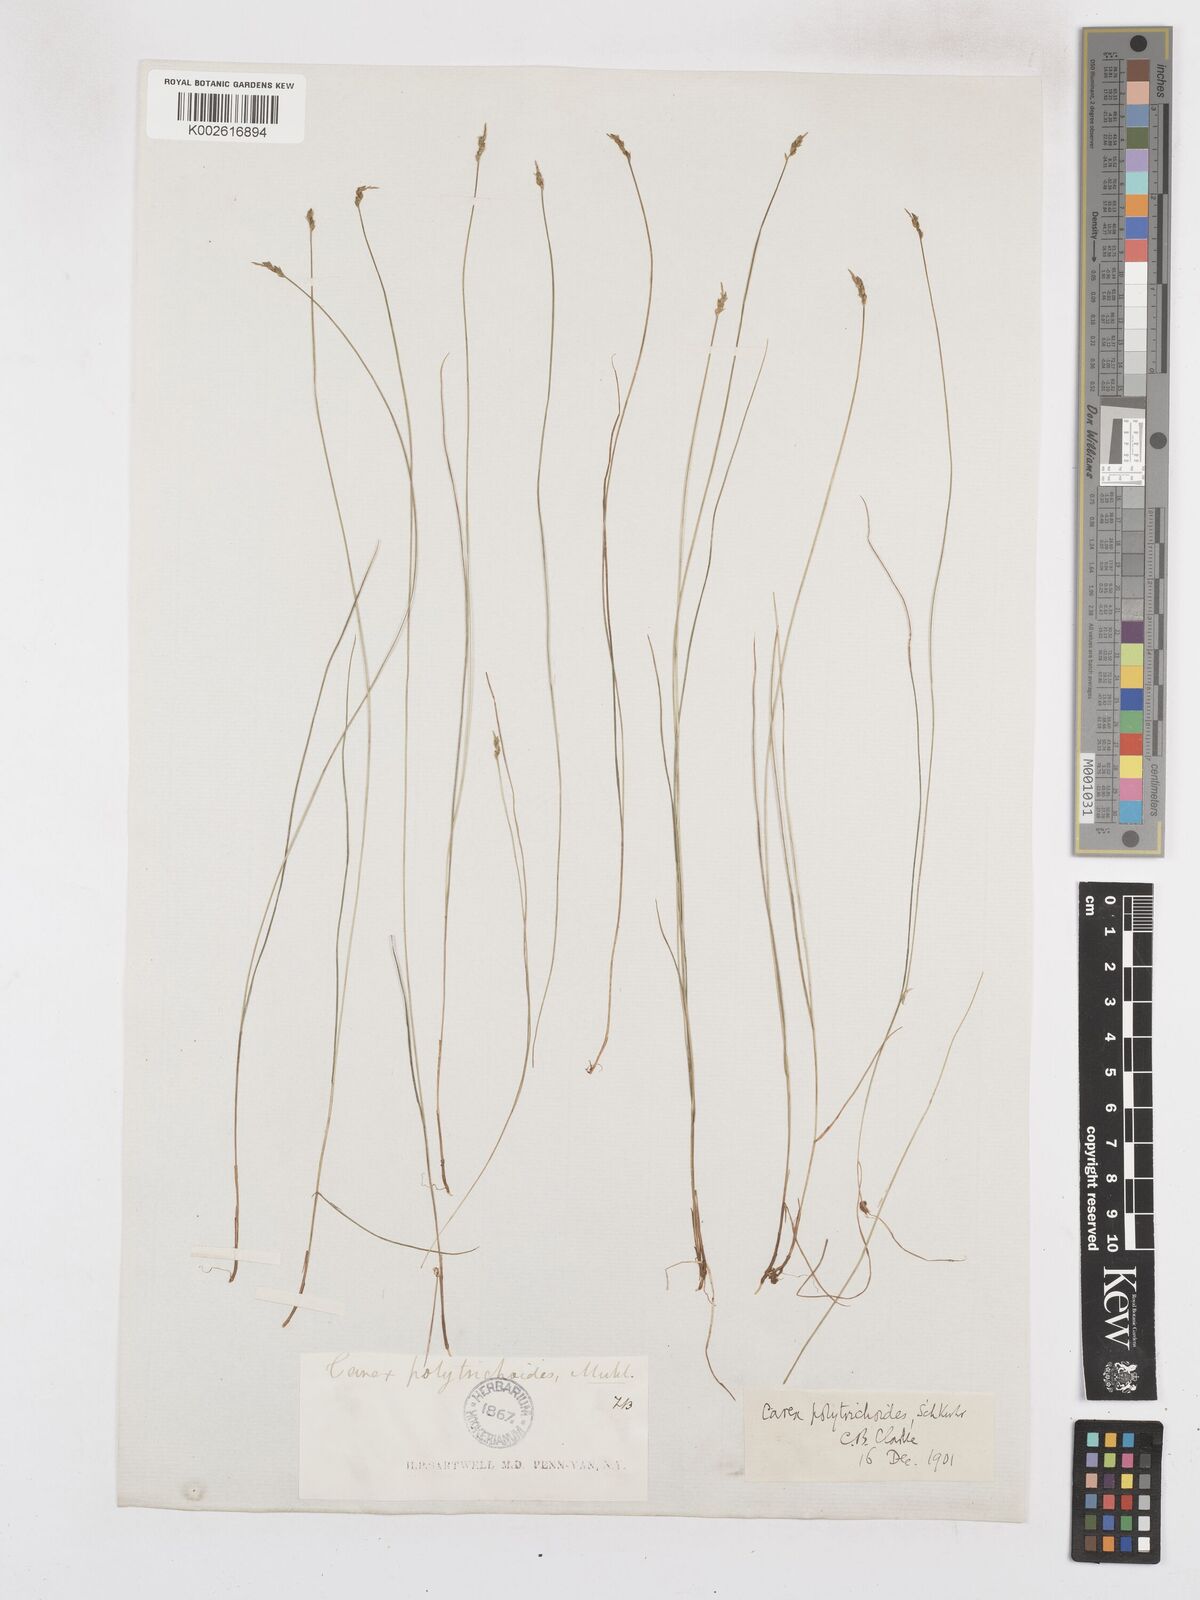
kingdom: Plantae
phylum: Tracheophyta
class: Liliopsida
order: Poales
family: Cyperaceae
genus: Carex
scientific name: Carex leptalea
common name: Bristly-stalked sedge
